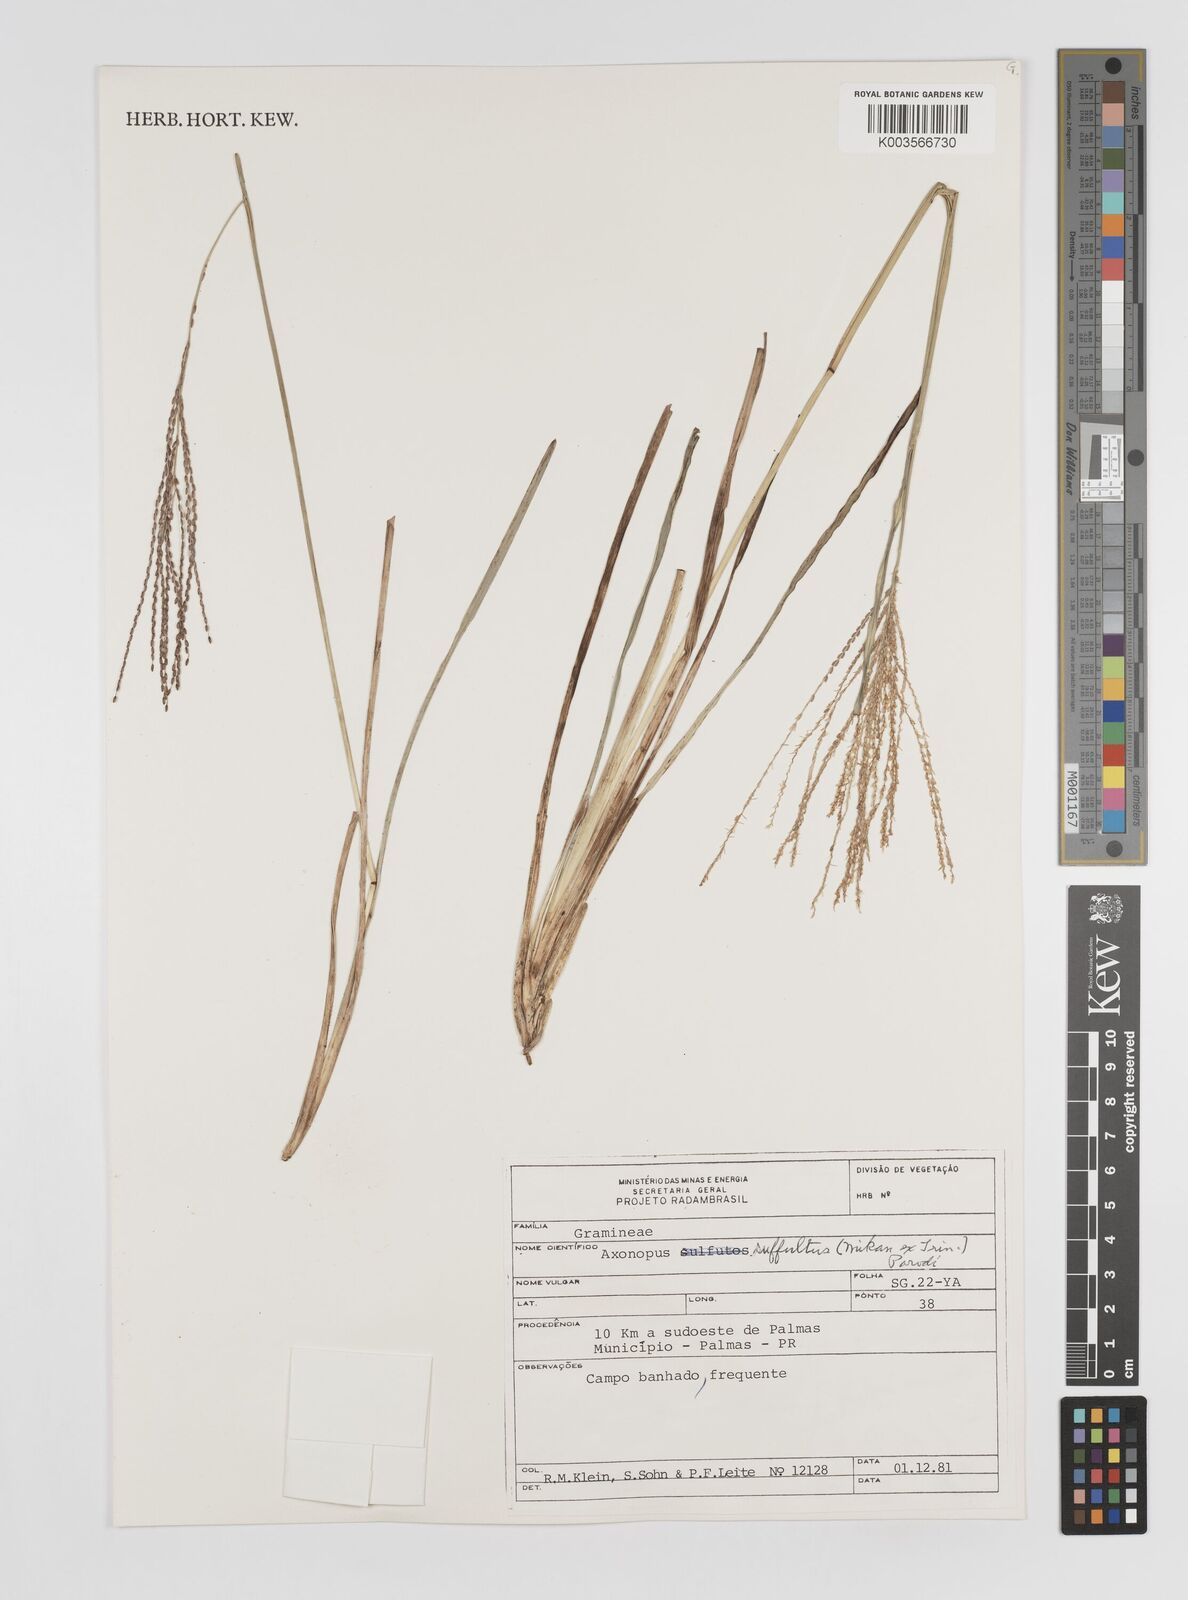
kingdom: Plantae
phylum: Tracheophyta
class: Liliopsida
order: Poales
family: Poaceae
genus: Axonopus
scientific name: Axonopus suffultus
